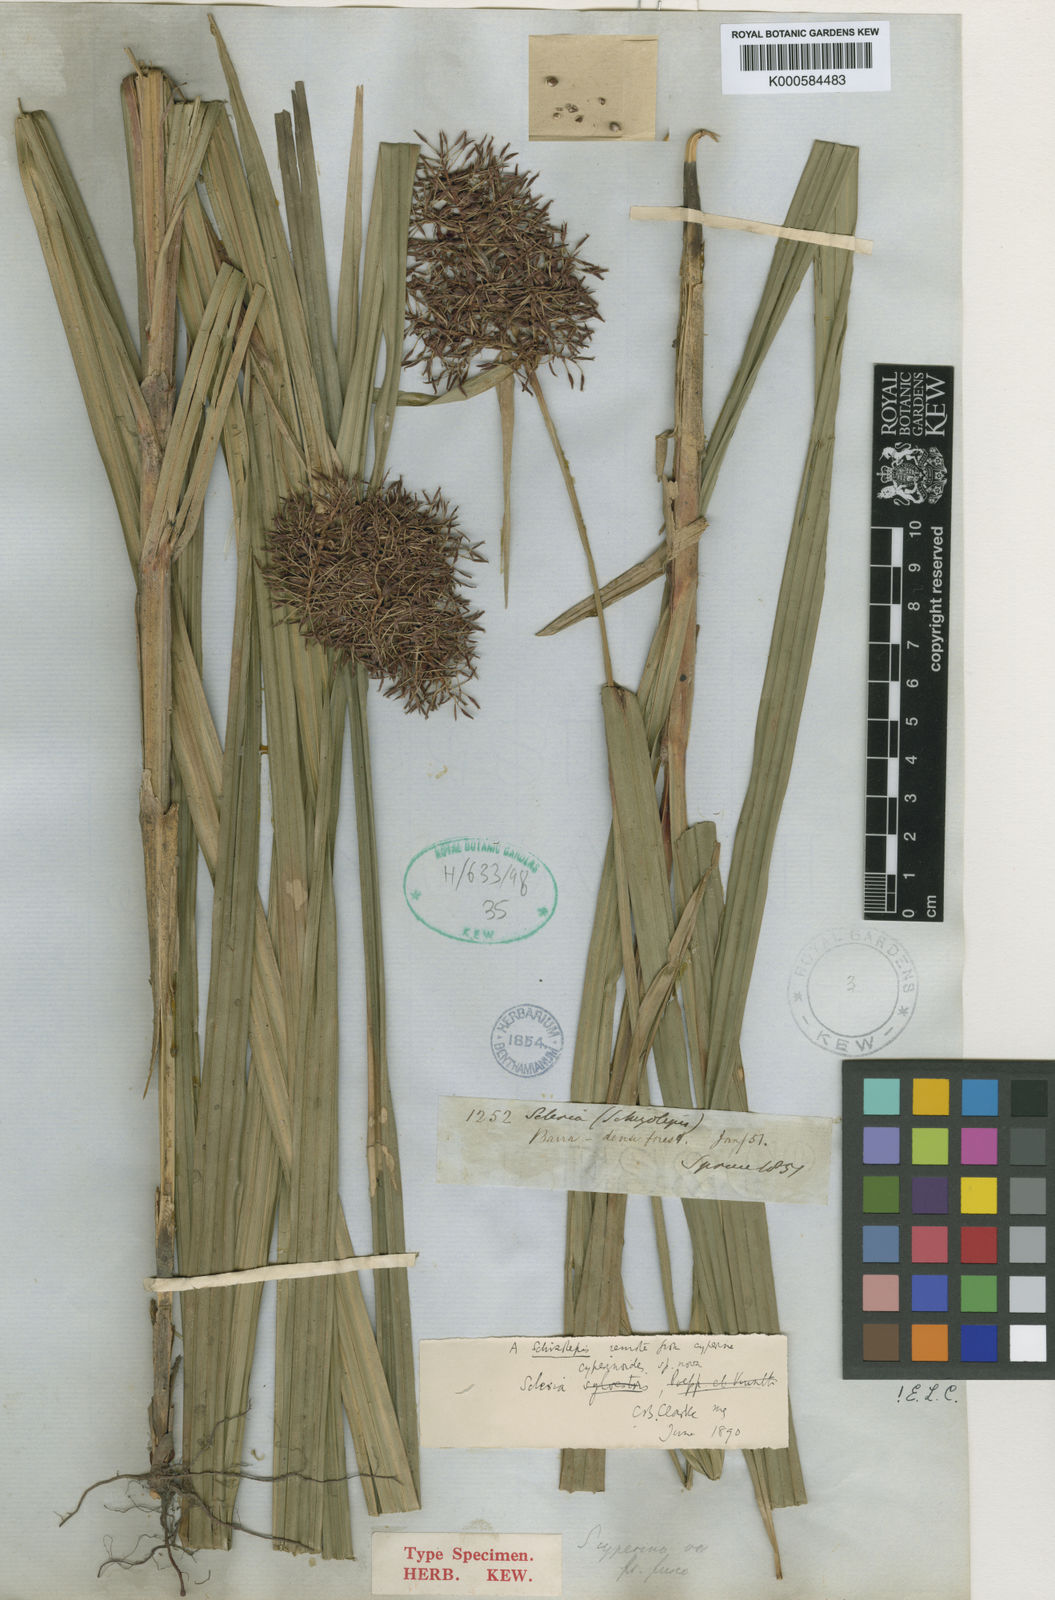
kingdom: Plantae
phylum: Tracheophyta
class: Liliopsida
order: Poales
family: Cyperaceae
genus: Scleria
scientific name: Scleria martii
